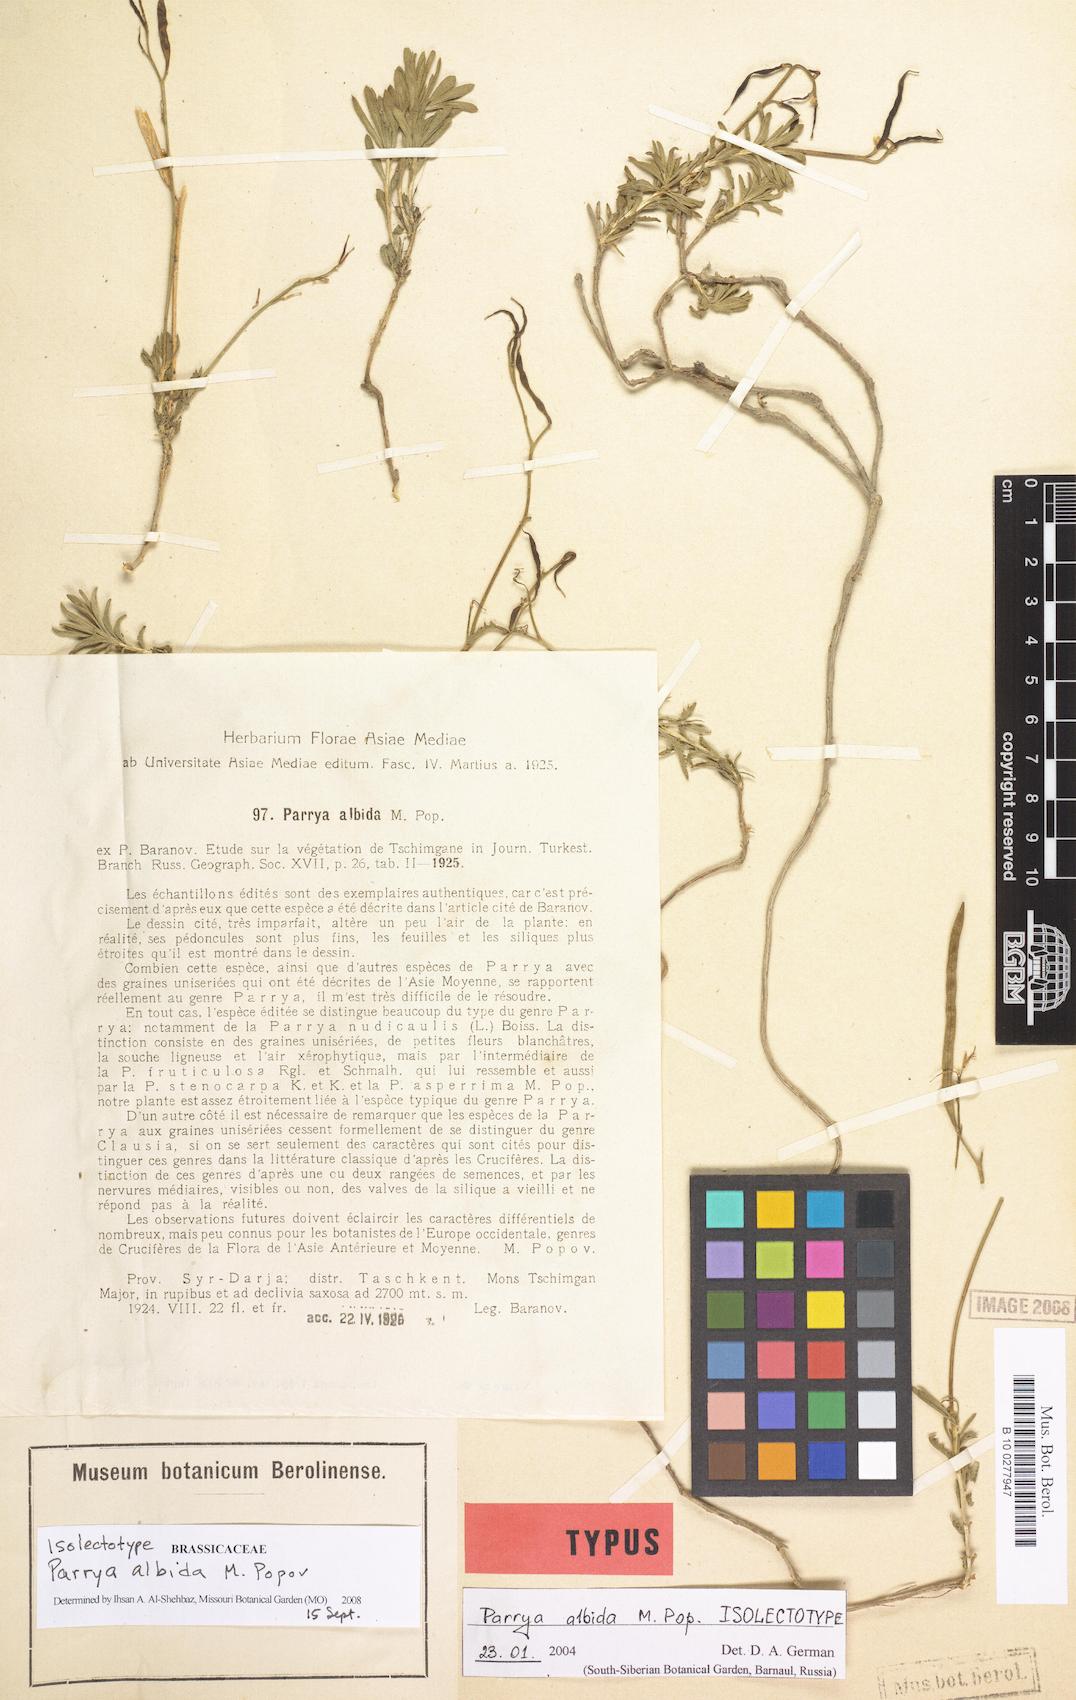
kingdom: Plantae
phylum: Tracheophyta
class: Magnoliopsida
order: Brassicales
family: Brassicaceae
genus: Parrya
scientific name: Parrya albida
